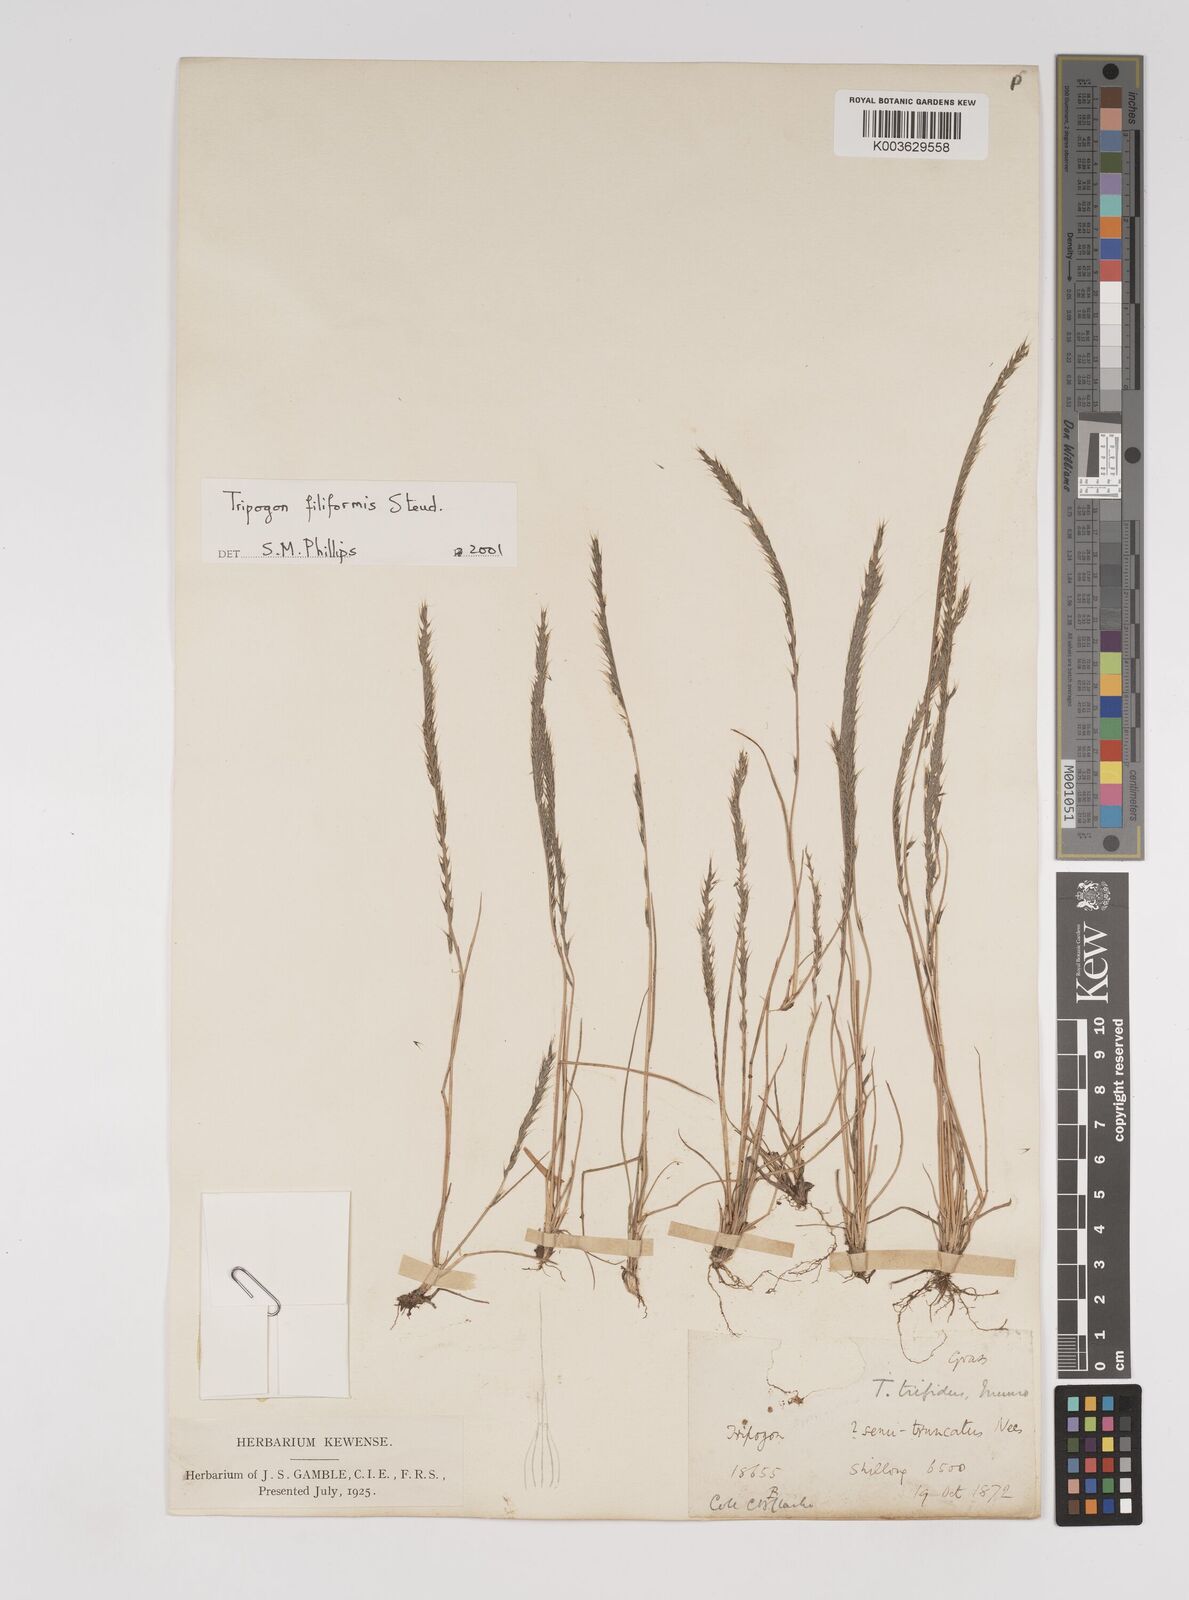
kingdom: Plantae
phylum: Tracheophyta
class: Liliopsida
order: Poales
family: Poaceae
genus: Tripogon
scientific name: Tripogon filiformis
